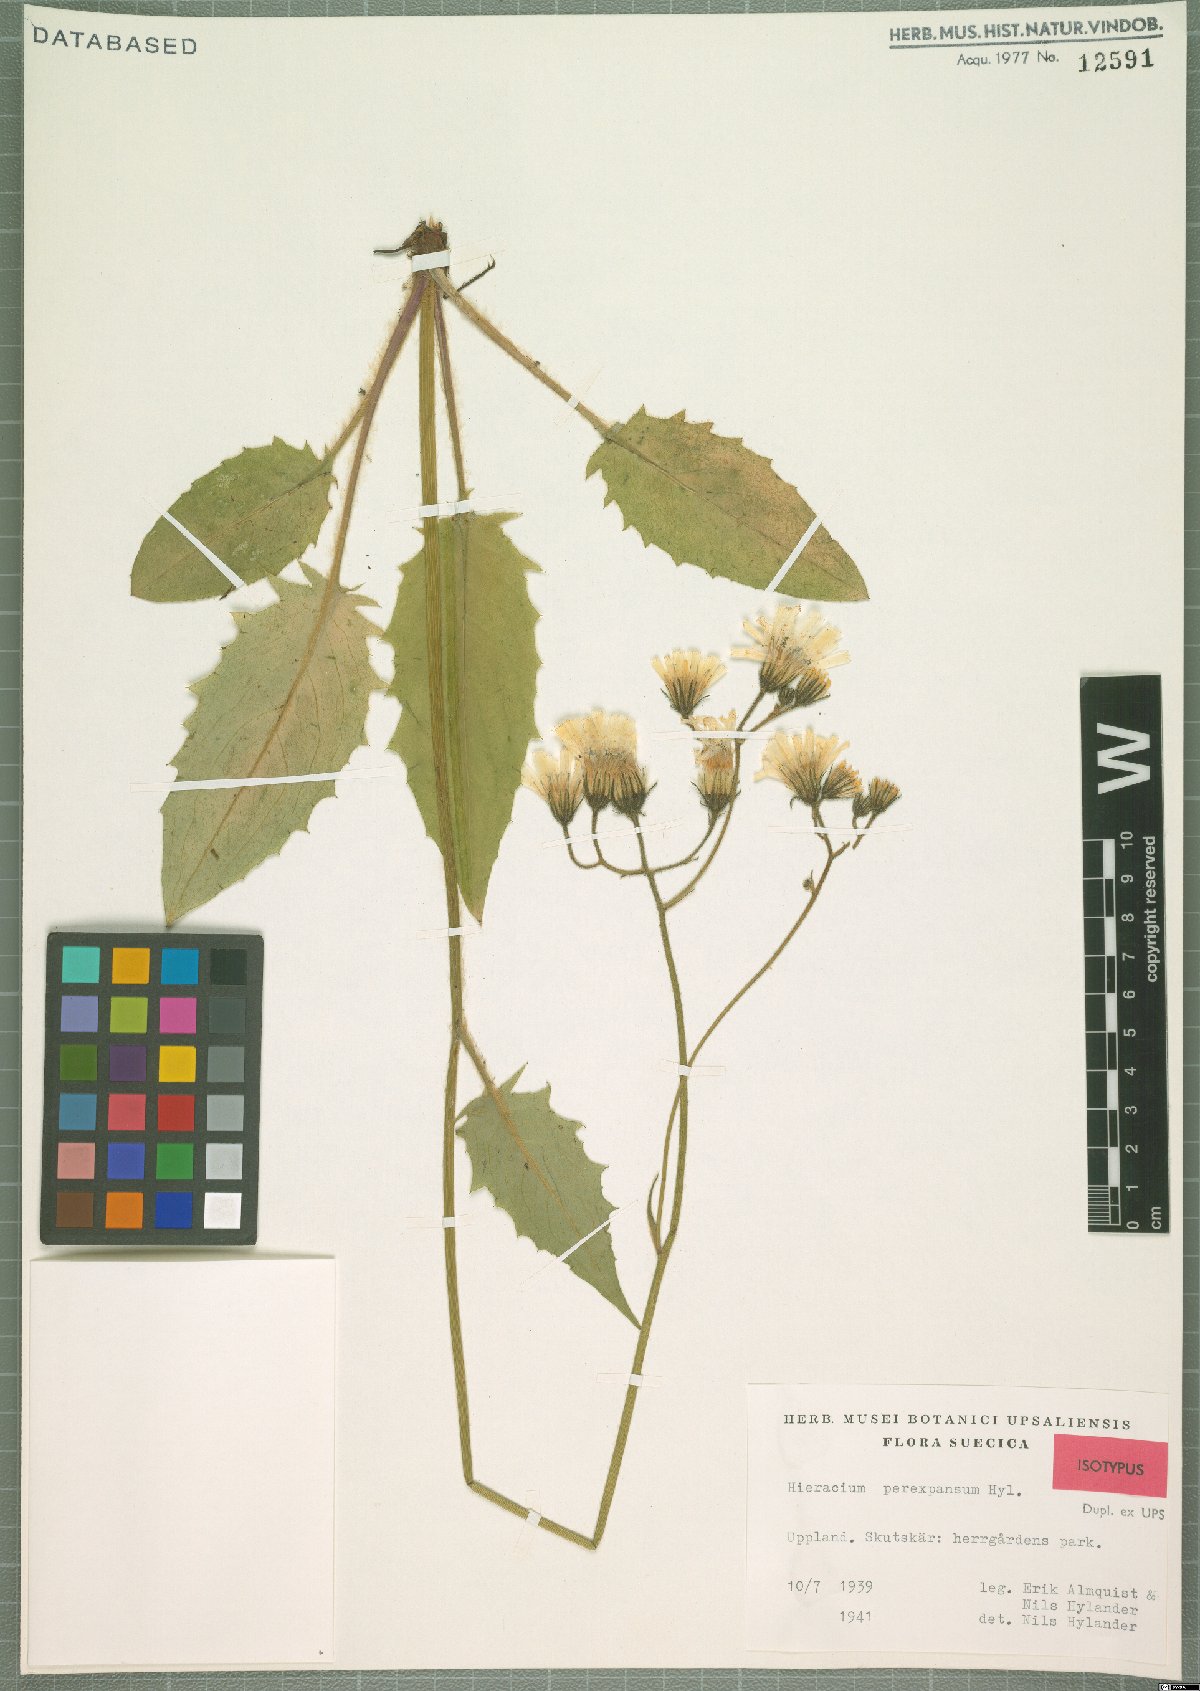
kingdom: Plantae
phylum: Tracheophyta
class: Magnoliopsida
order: Asterales
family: Asteraceae
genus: Hieracium
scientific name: Hieracium perexpansum
